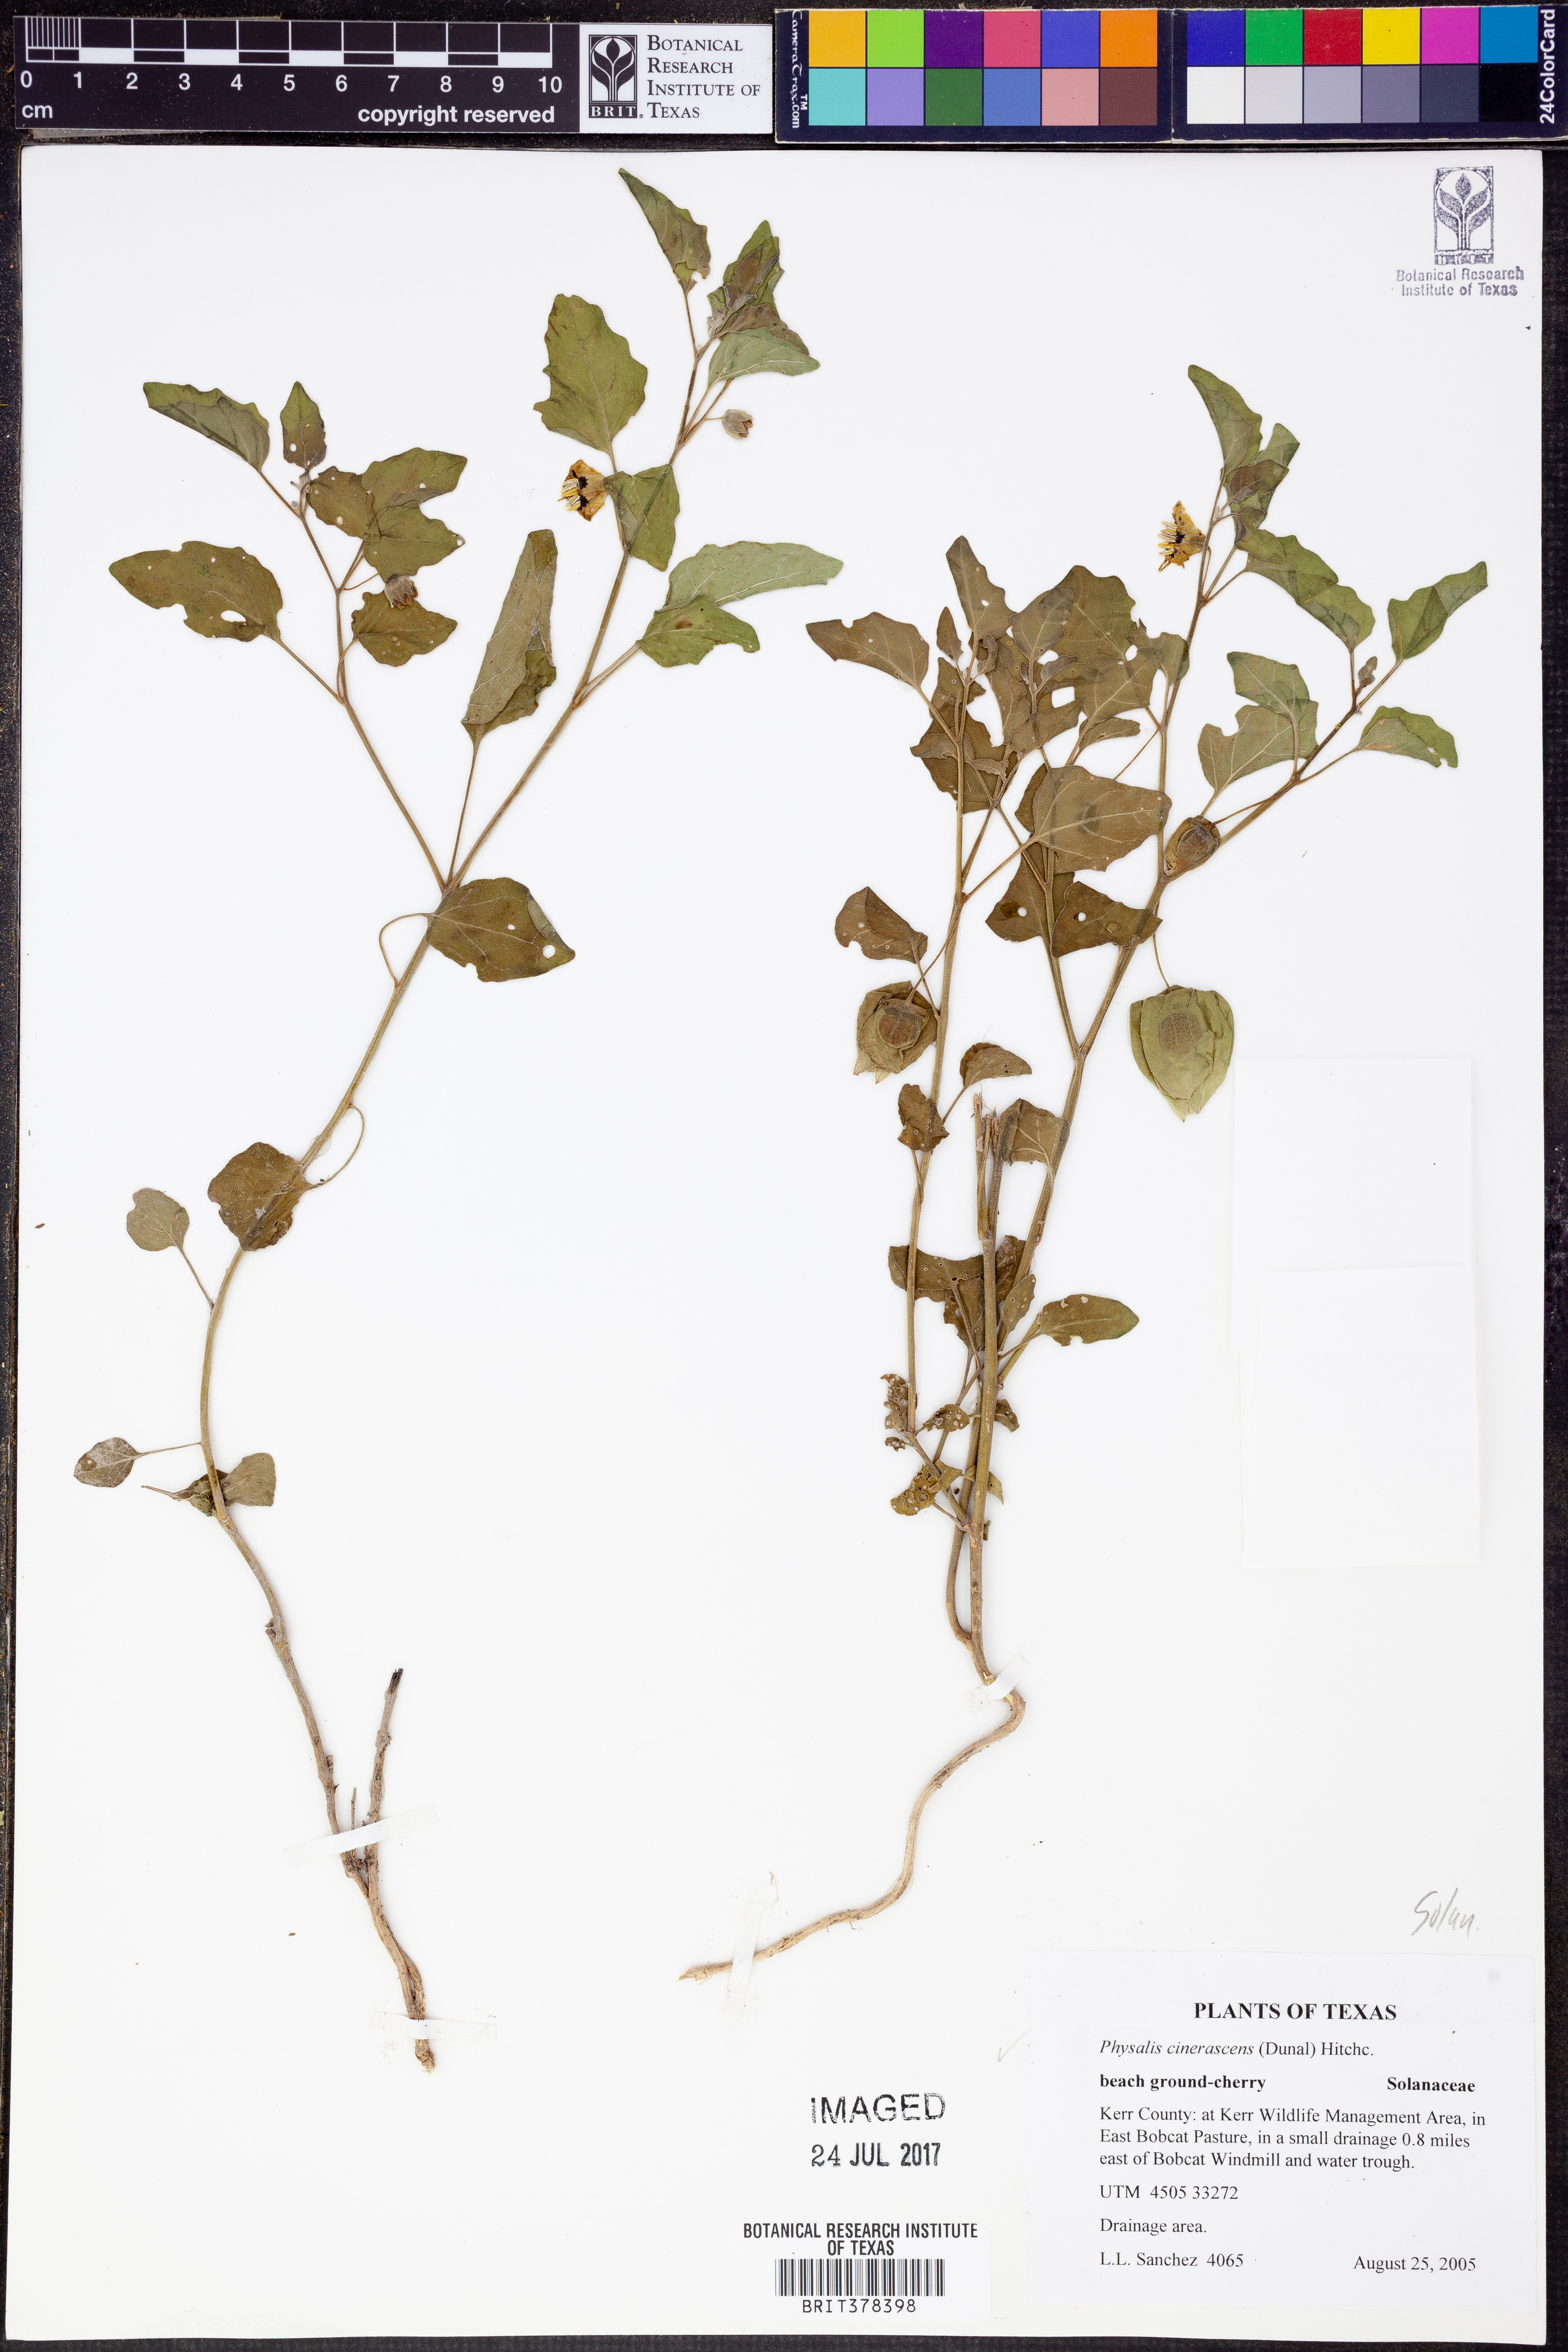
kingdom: Plantae
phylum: Tracheophyta
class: Magnoliopsida
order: Solanales
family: Solanaceae
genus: Physalis
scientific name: Physalis cinerascens
